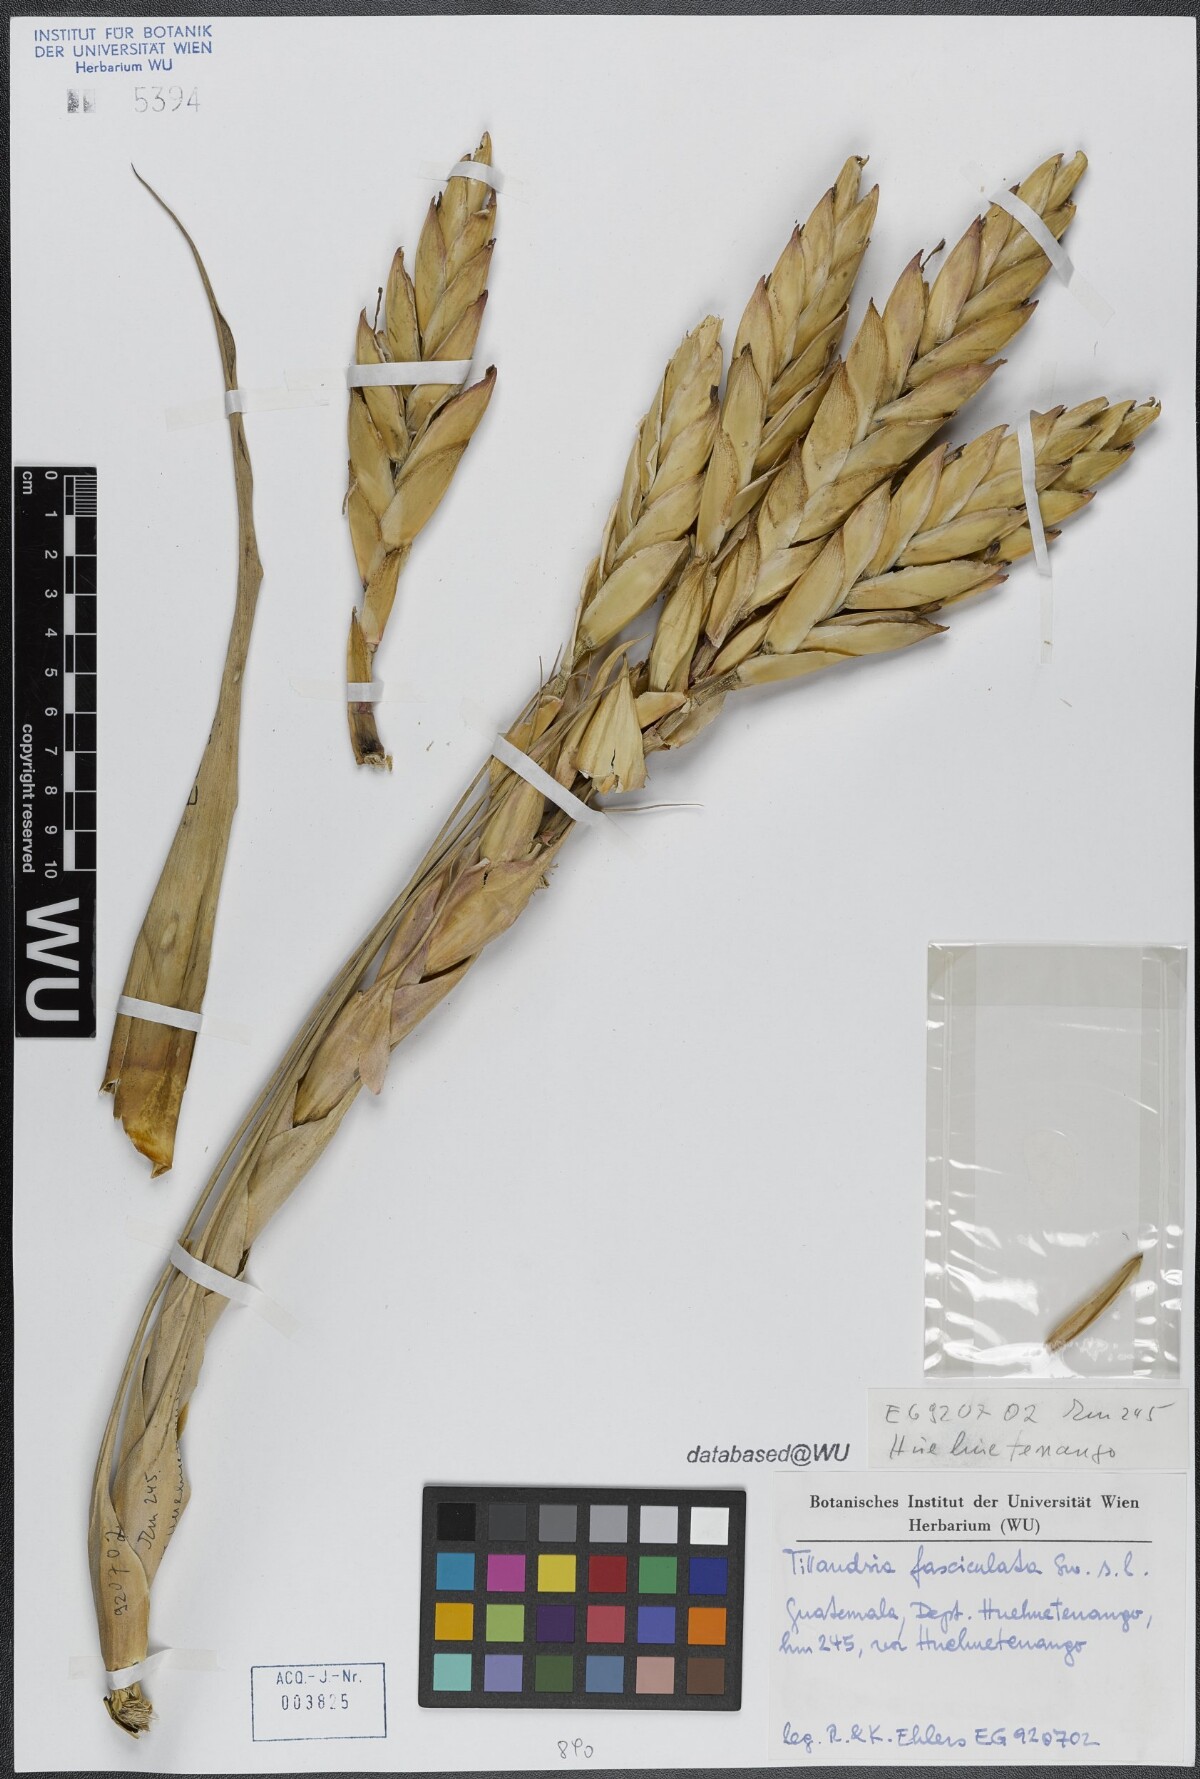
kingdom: Plantae
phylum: Tracheophyta
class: Liliopsida
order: Poales
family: Bromeliaceae
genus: Tillandsia
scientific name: Tillandsia fasciculata
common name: Giant airplant
